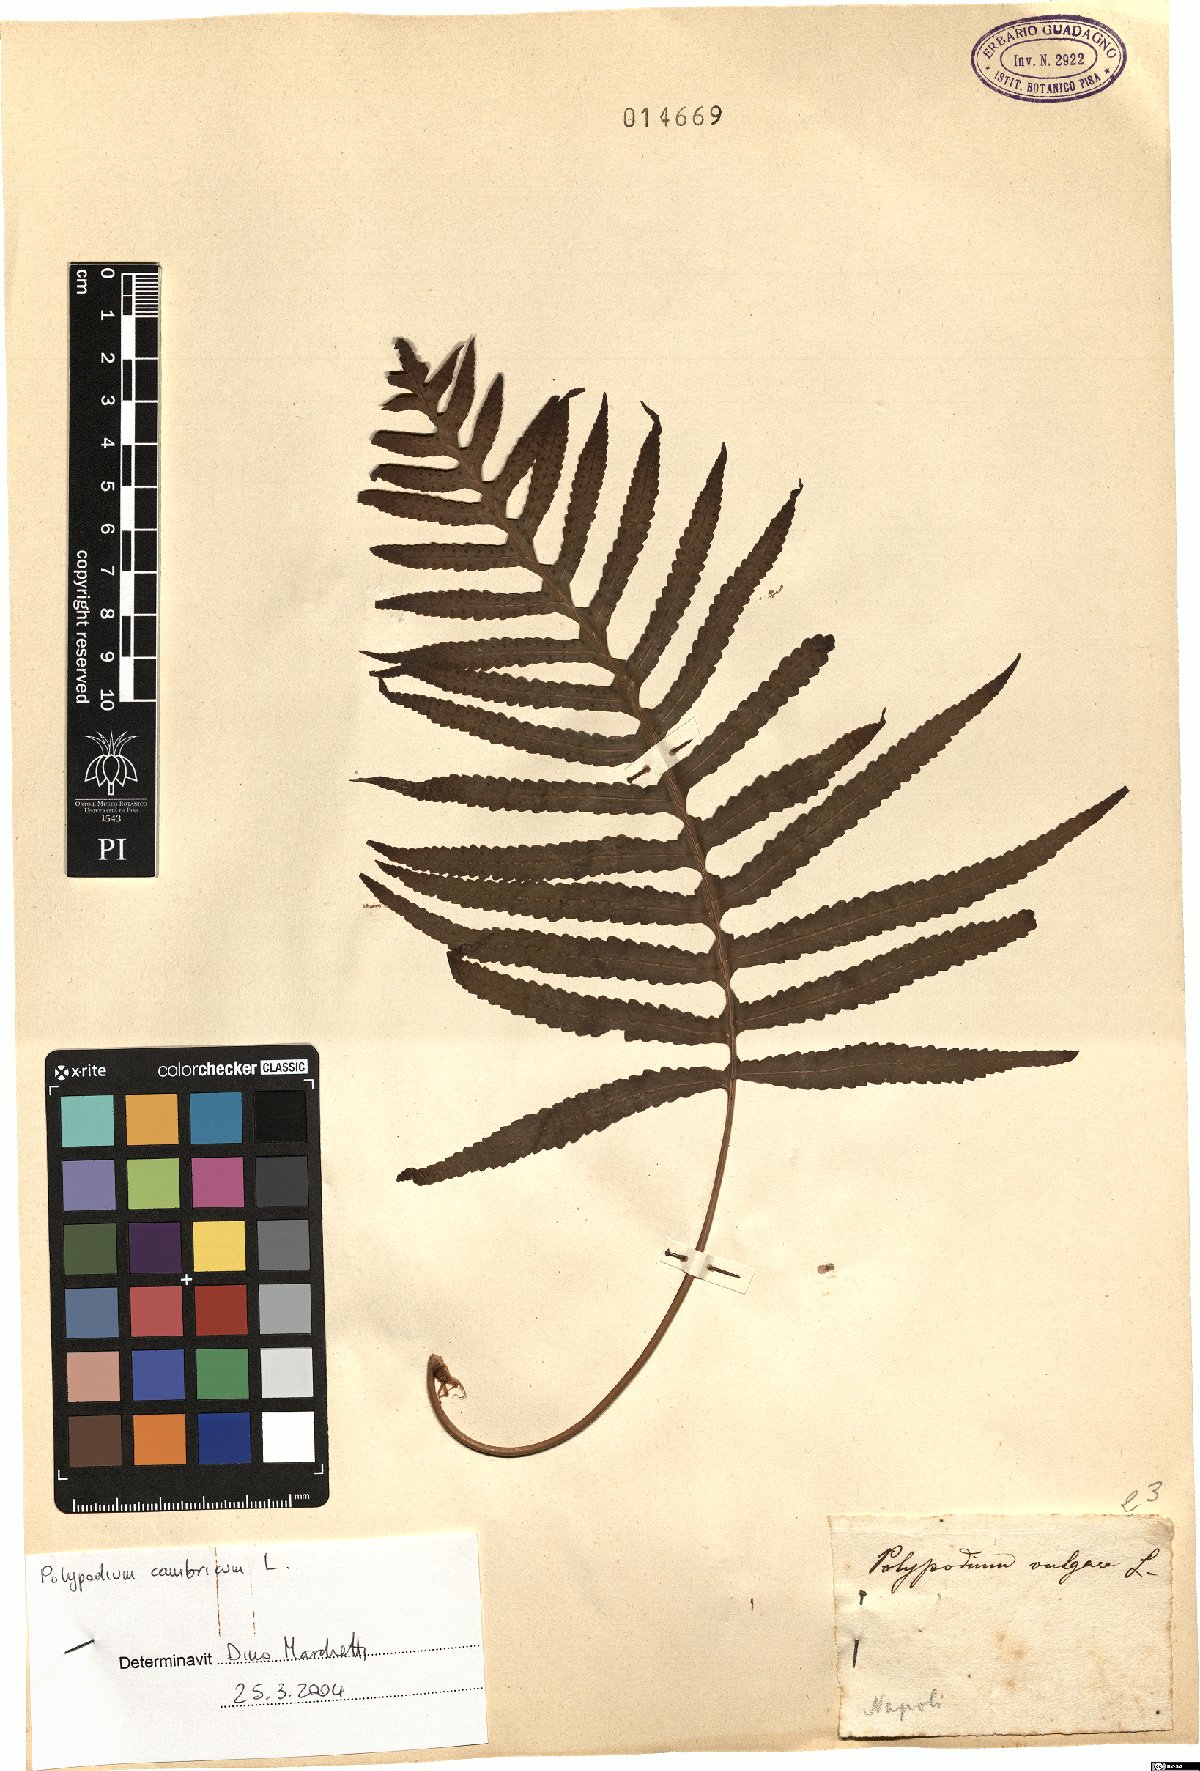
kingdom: Plantae
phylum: Tracheophyta
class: Polypodiopsida
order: Polypodiales
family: Polypodiaceae
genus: Polypodium
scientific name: Polypodium cambricum
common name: Southern polypody
